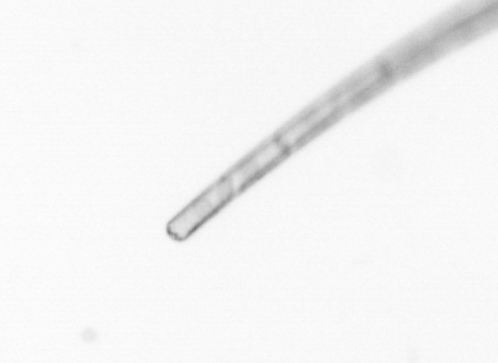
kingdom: Chromista
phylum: Ochrophyta
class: Bacillariophyceae
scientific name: Bacillariophyceae
